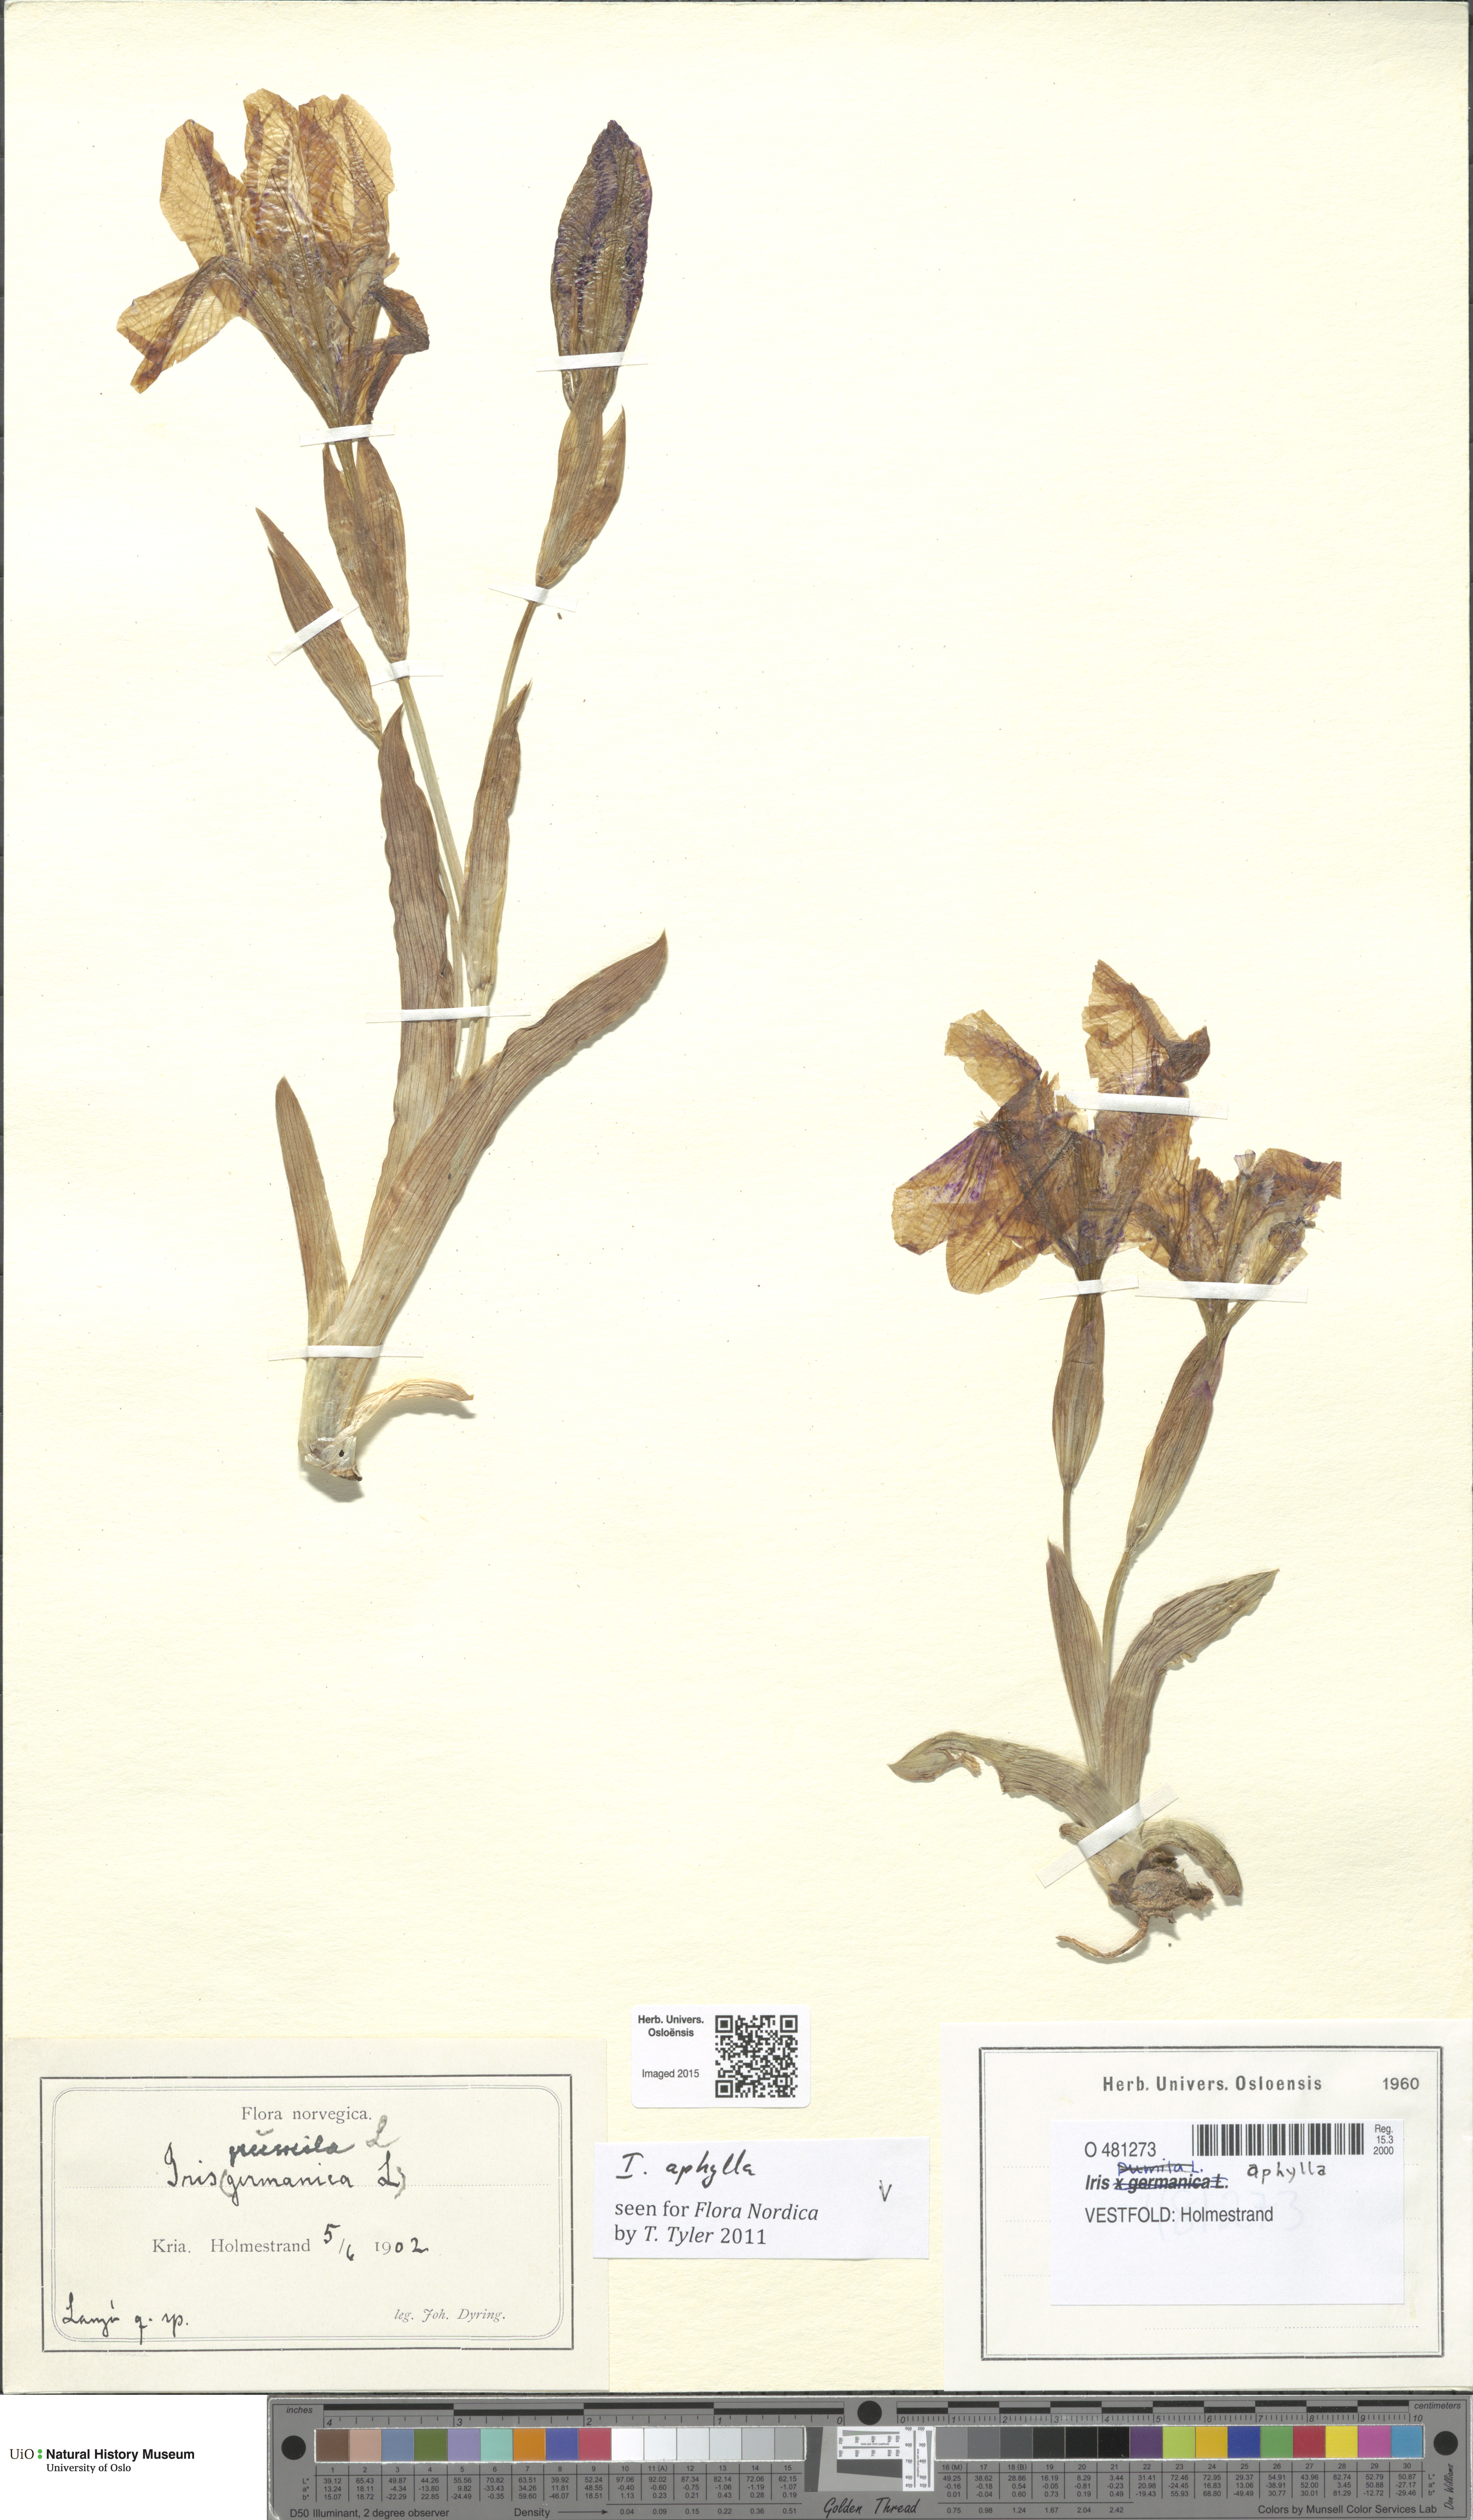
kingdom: Plantae
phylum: Tracheophyta
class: Liliopsida
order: Asparagales
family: Iridaceae
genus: Iris
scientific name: Iris aphylla
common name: Stool iris
